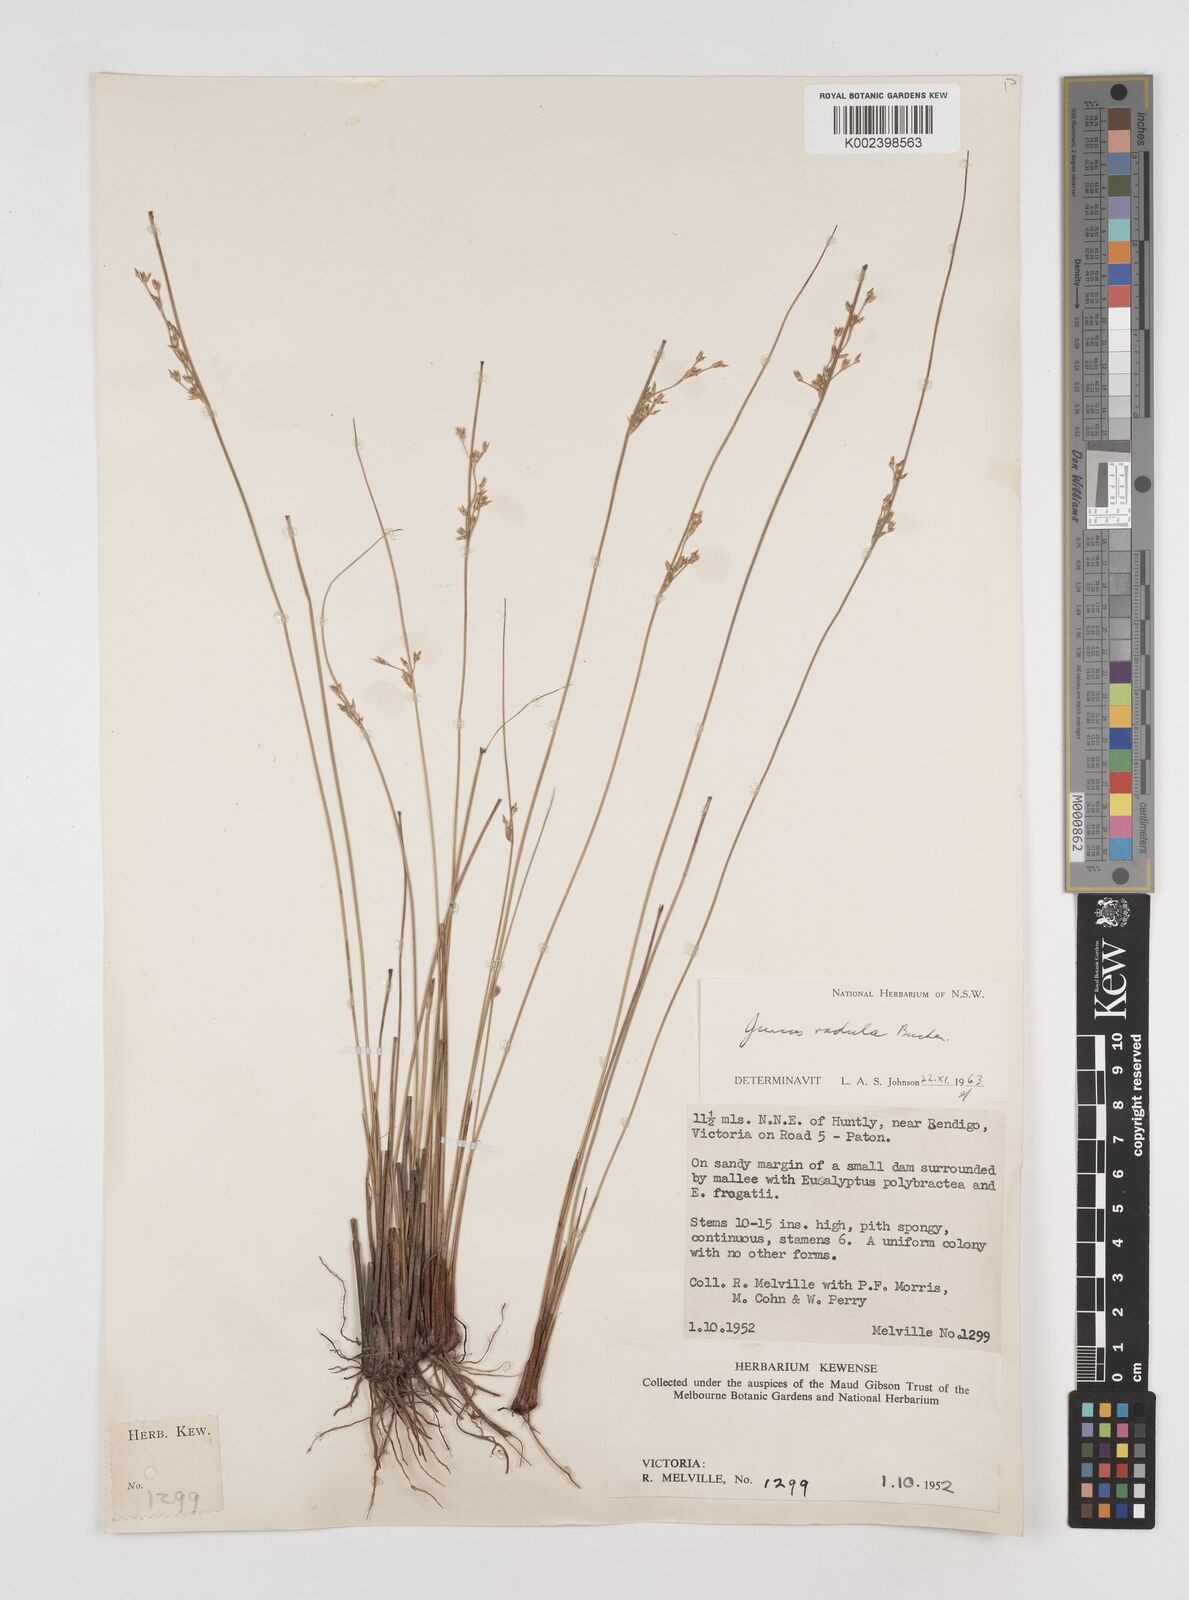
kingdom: Plantae
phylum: Tracheophyta
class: Liliopsida
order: Poales
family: Juncaceae
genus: Juncus
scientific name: Juncus radula
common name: Hoary rush
